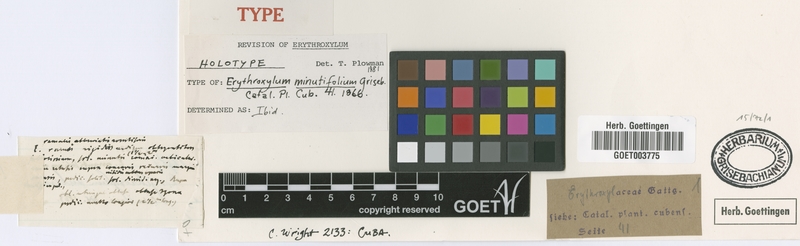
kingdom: Plantae
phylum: Tracheophyta
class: Magnoliopsida
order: Malpighiales
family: Erythroxylaceae
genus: Erythroxylum
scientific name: Erythroxylum minutifolium
